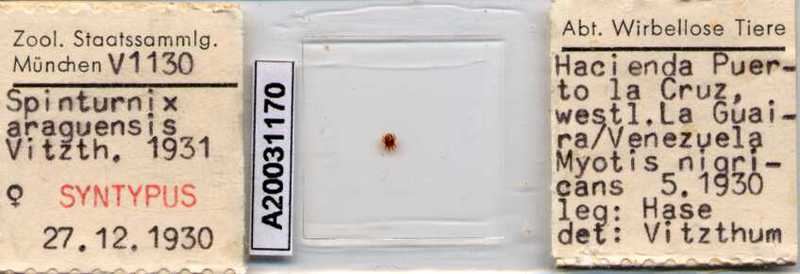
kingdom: Animalia
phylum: Arthropoda
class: Arachnida
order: Mesostigmata
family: Spinturnicidae
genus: Spinturnix
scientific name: Spinturnix americana
